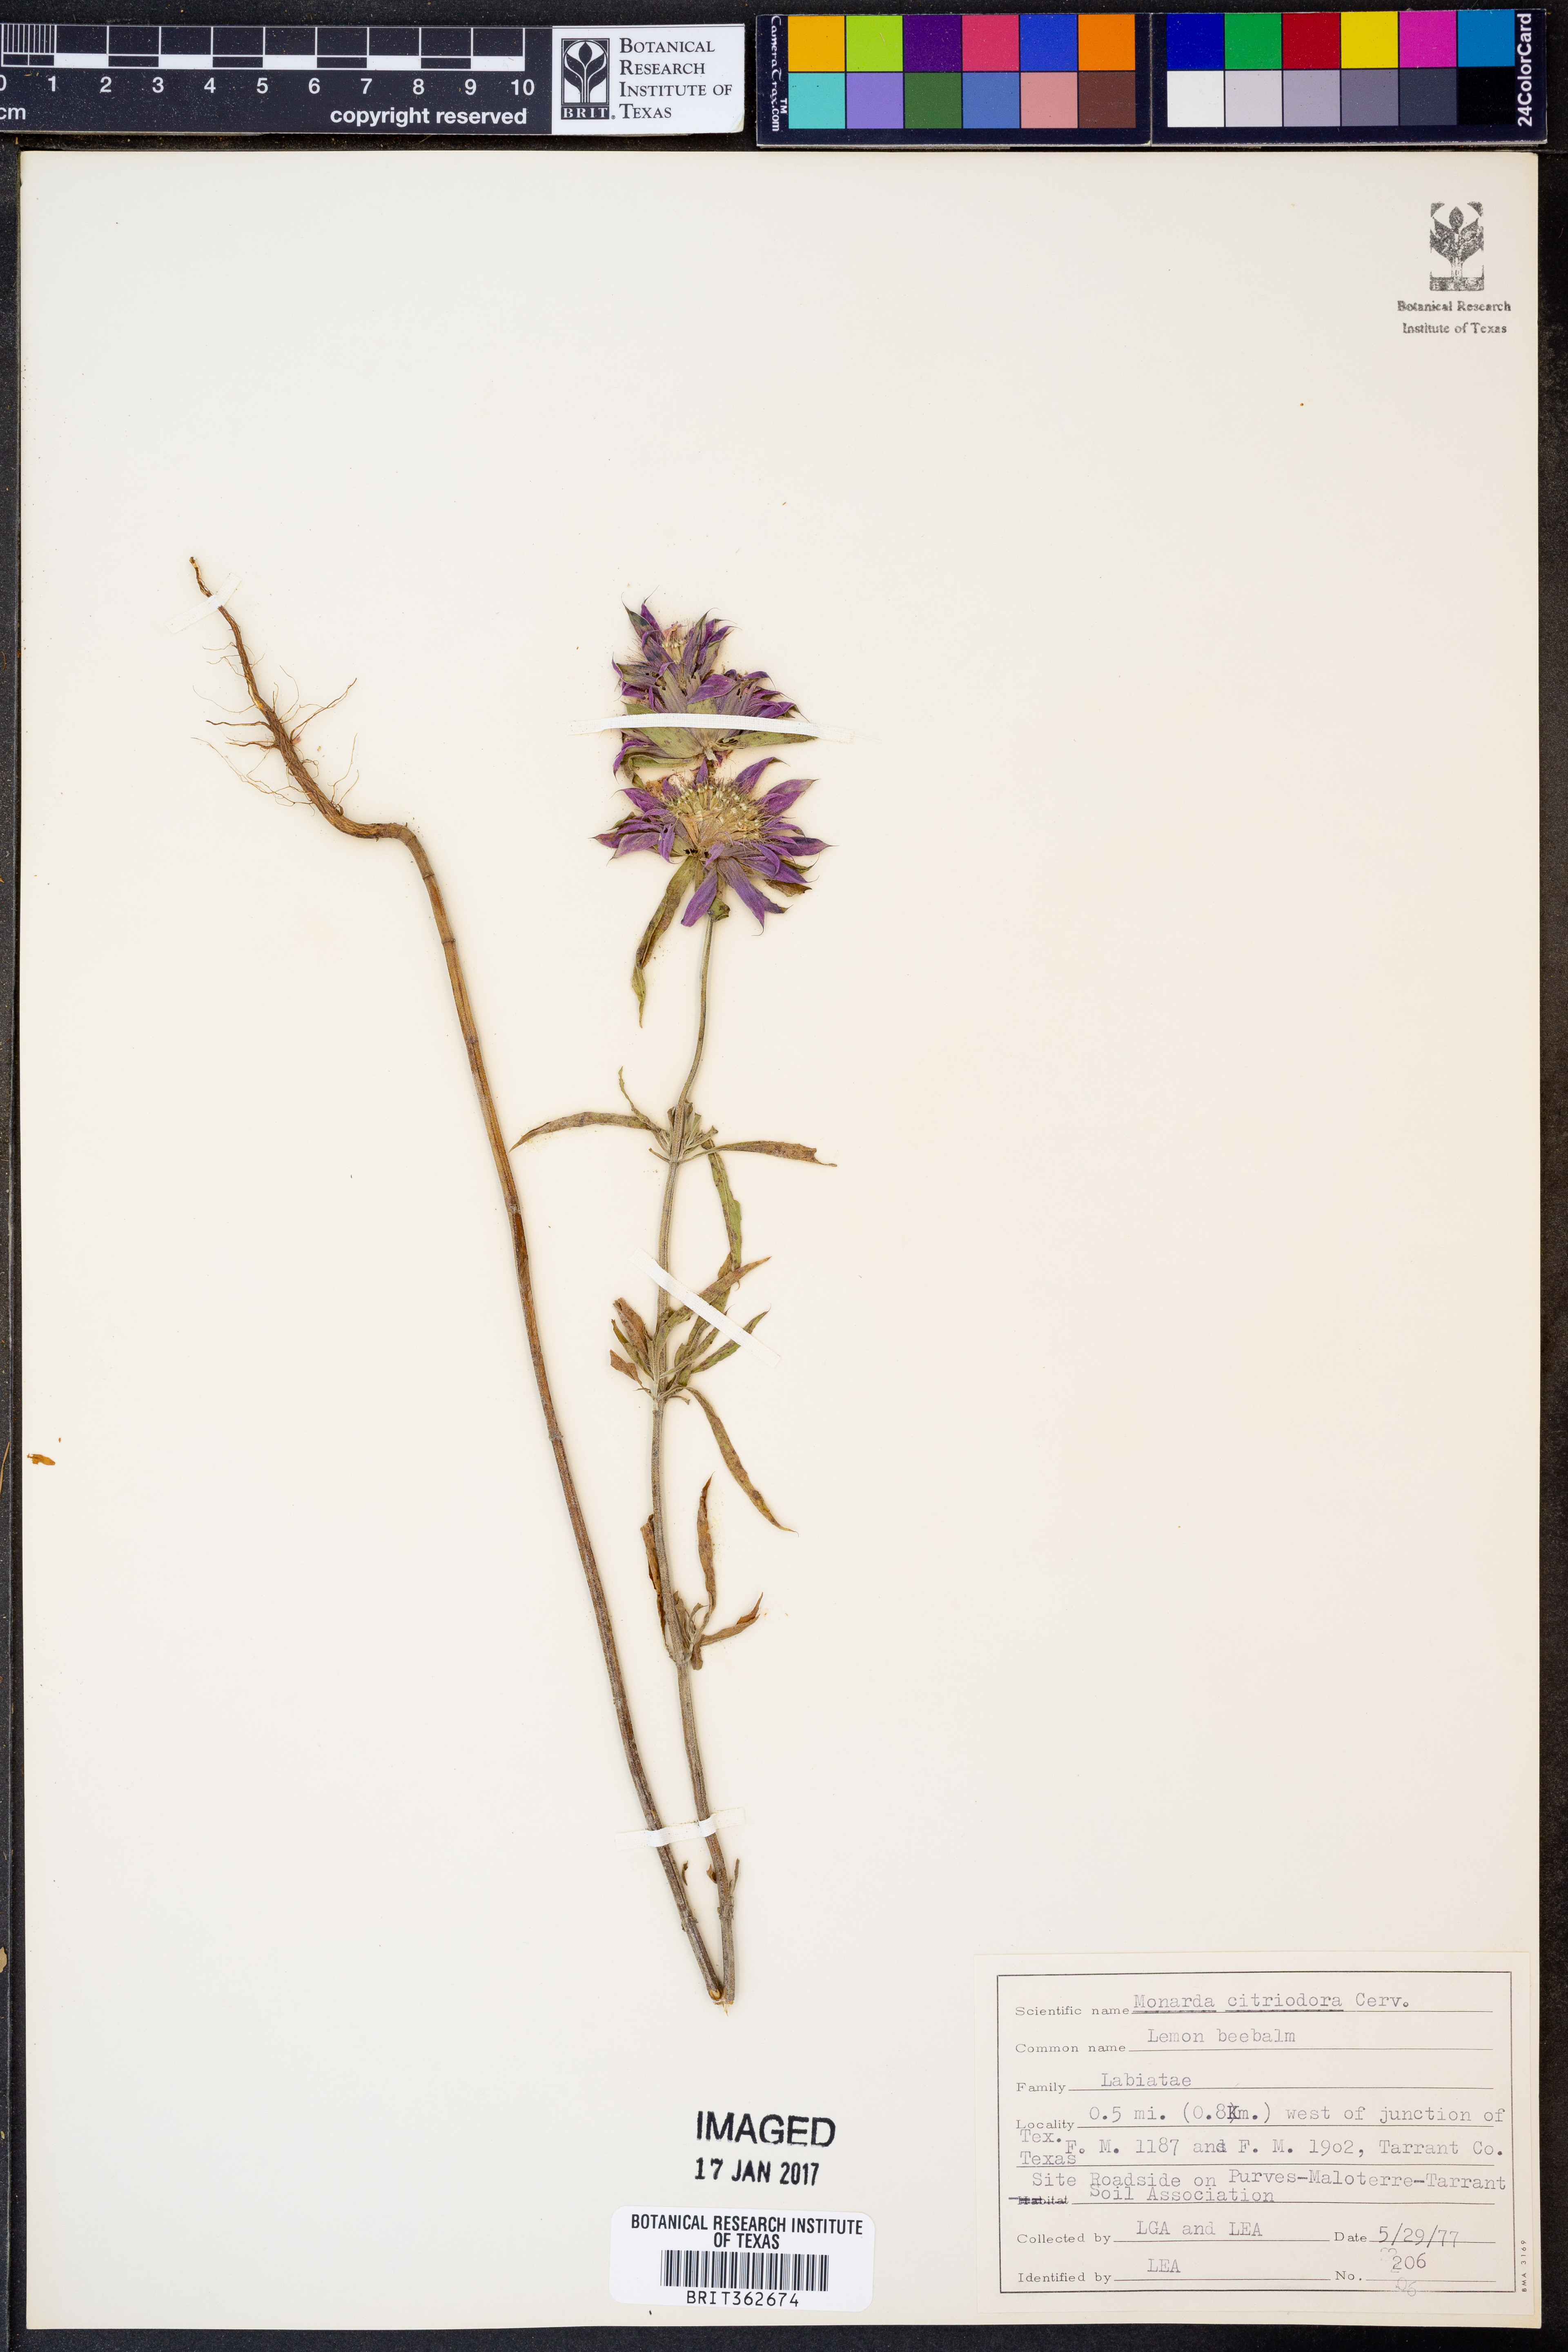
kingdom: Plantae
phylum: Tracheophyta
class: Magnoliopsida
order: Lamiales
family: Lamiaceae
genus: Monarda
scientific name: Monarda citriodora
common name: Lemon beebalm
